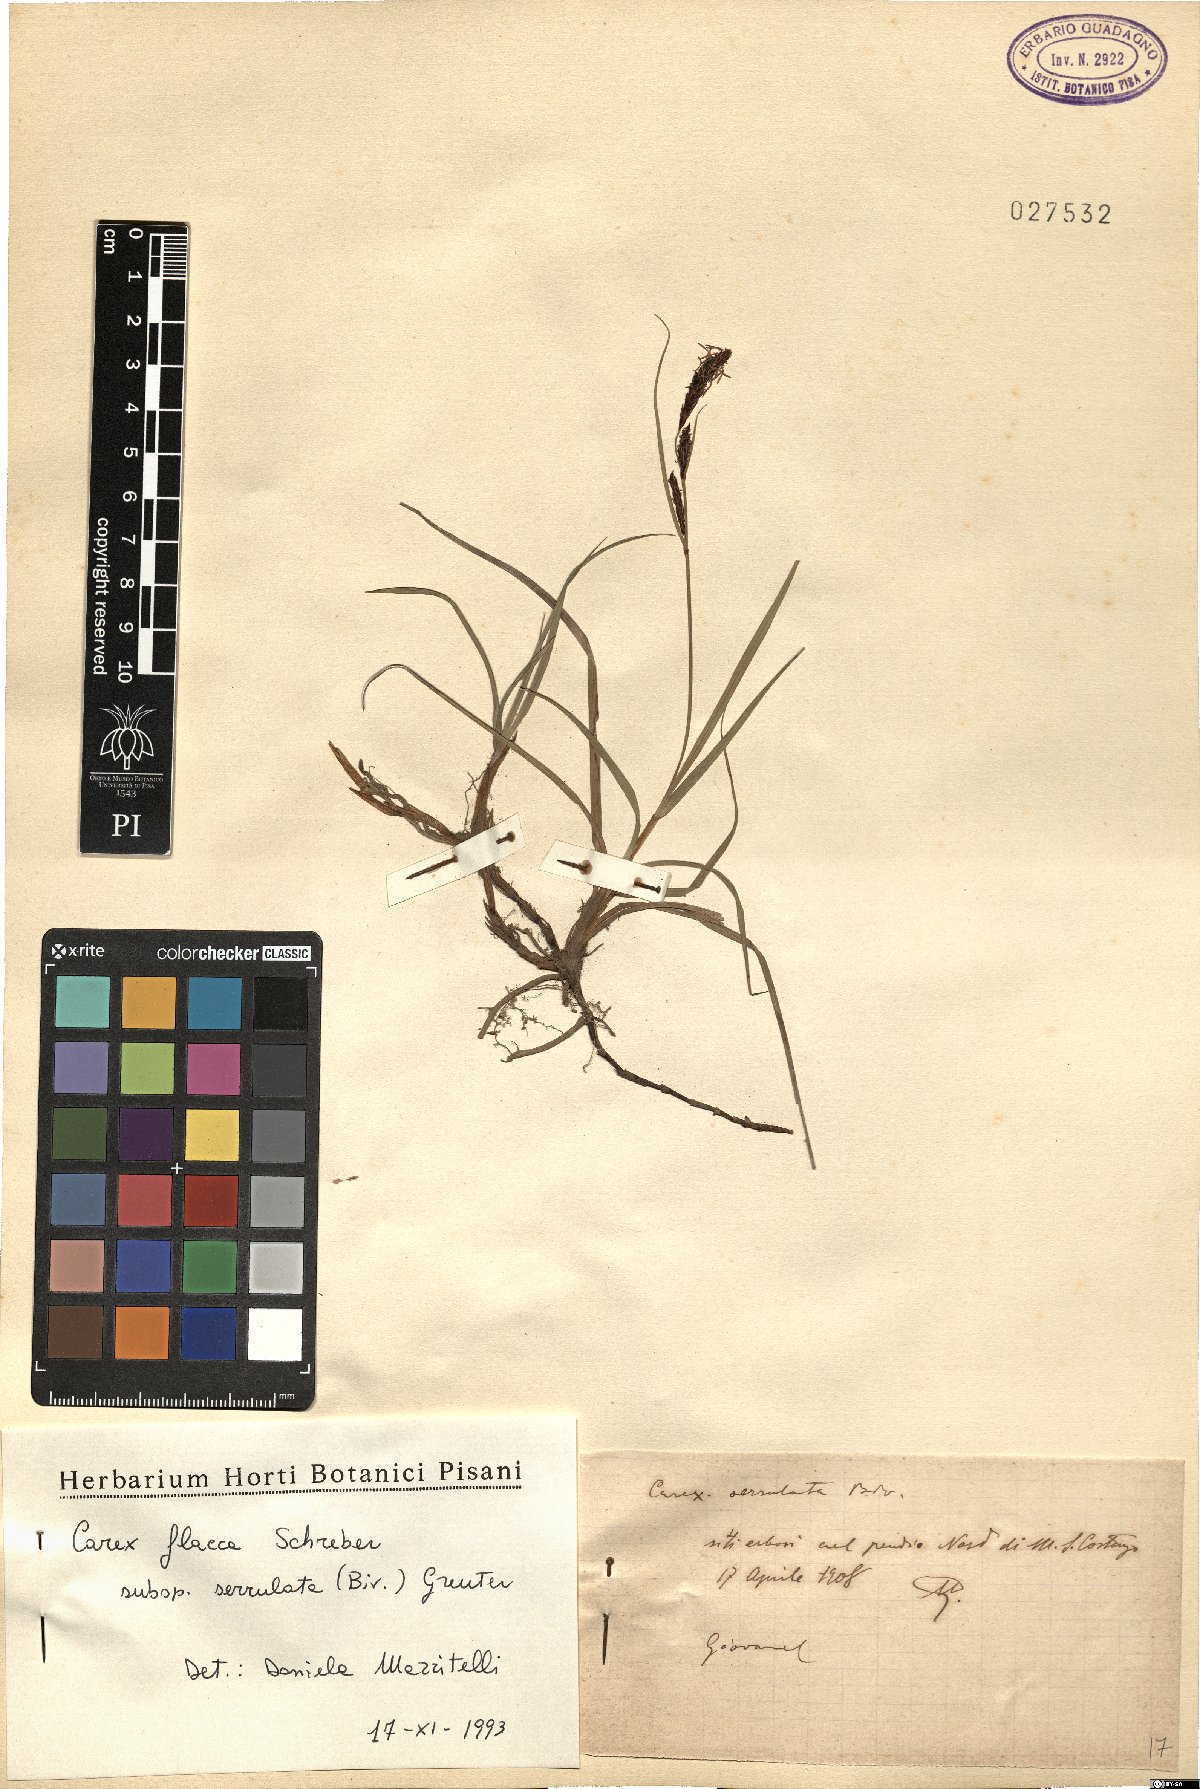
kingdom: Plantae
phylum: Tracheophyta
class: Liliopsida
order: Poales
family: Cyperaceae
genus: Carex
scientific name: Carex flacca
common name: Glaucous sedge
